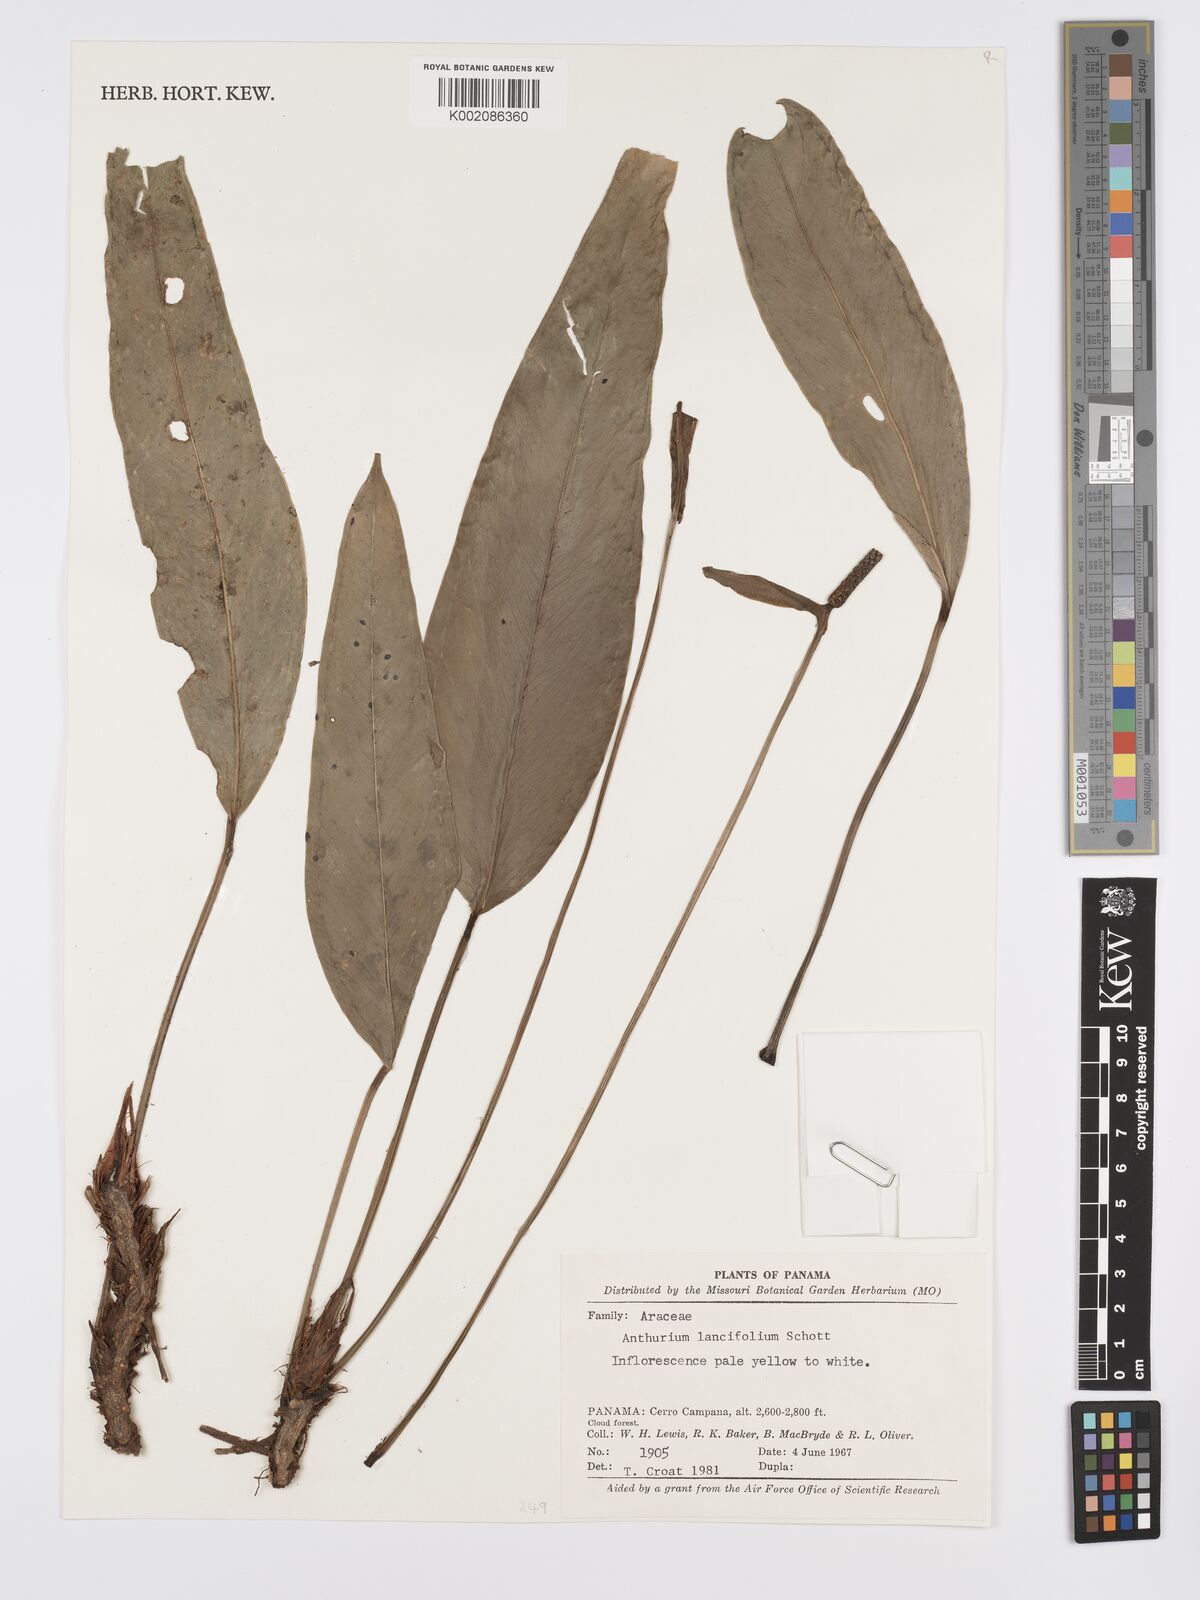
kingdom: Plantae
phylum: Tracheophyta
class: Liliopsida
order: Alismatales
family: Araceae
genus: Anthurium
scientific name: Anthurium lancifolium
